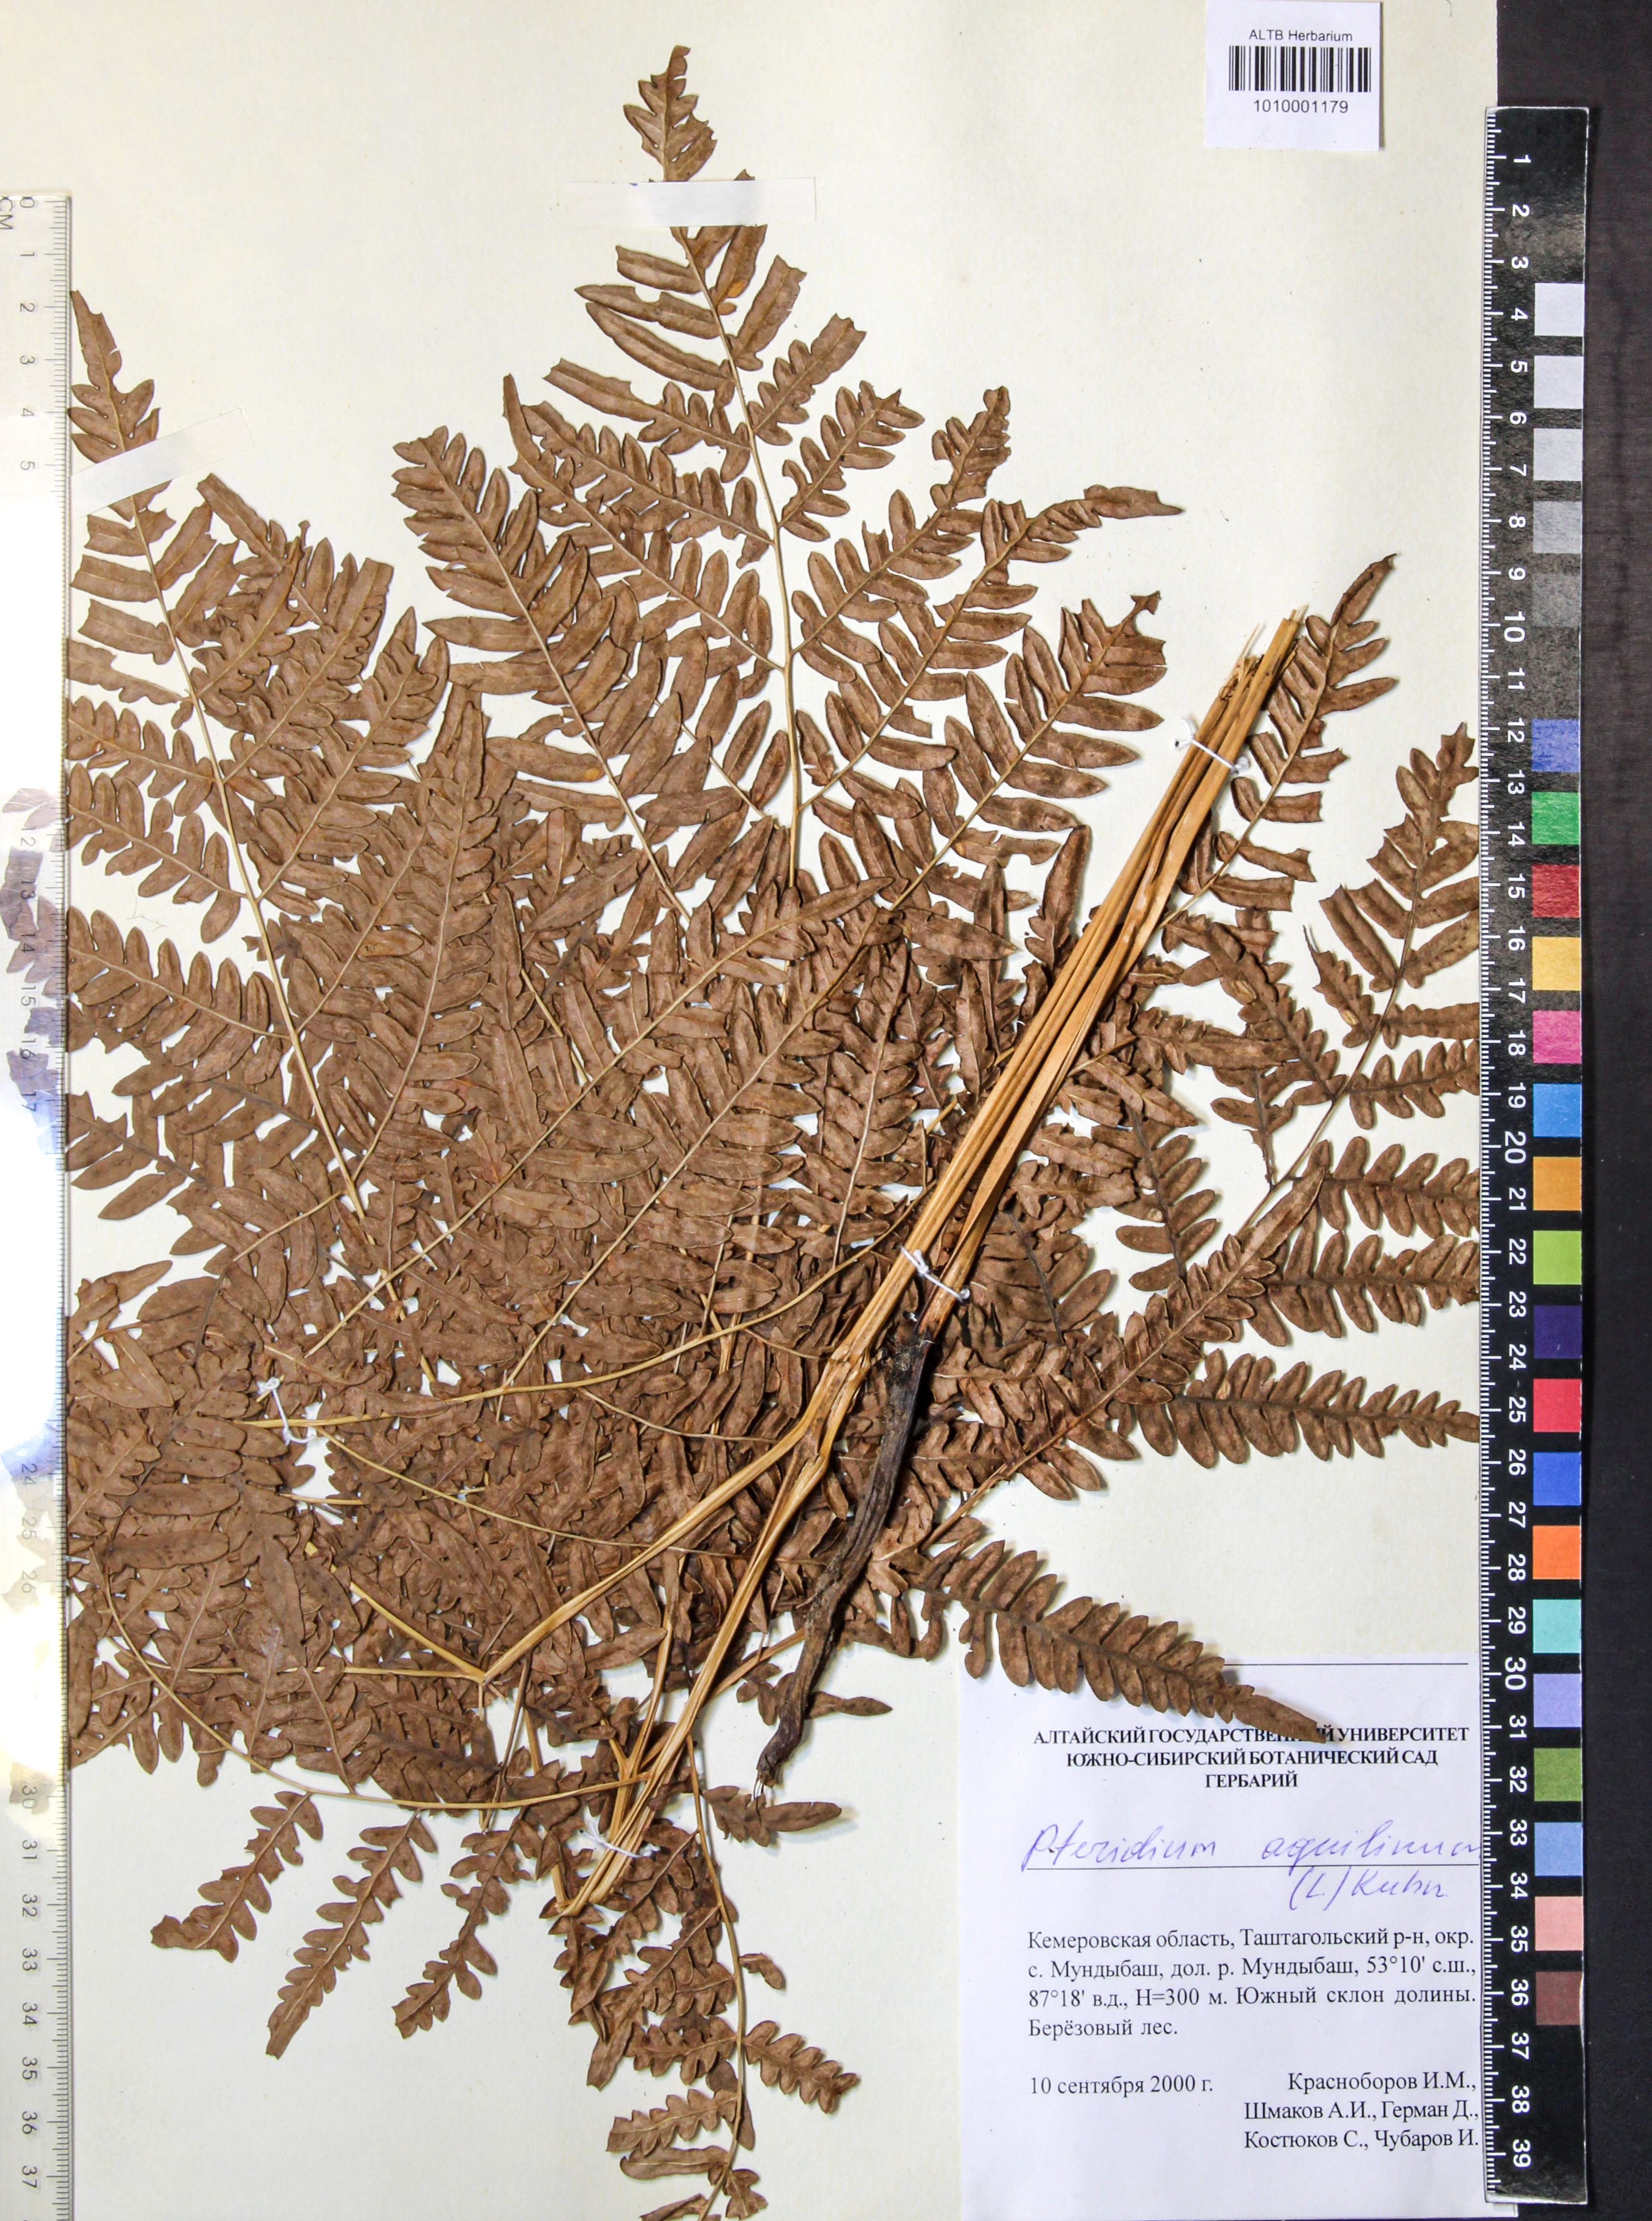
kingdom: Plantae
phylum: Tracheophyta
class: Polypodiopsida
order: Polypodiales
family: Dennstaedtiaceae
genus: Pteridium
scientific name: Pteridium aquilinum
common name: Bracken
